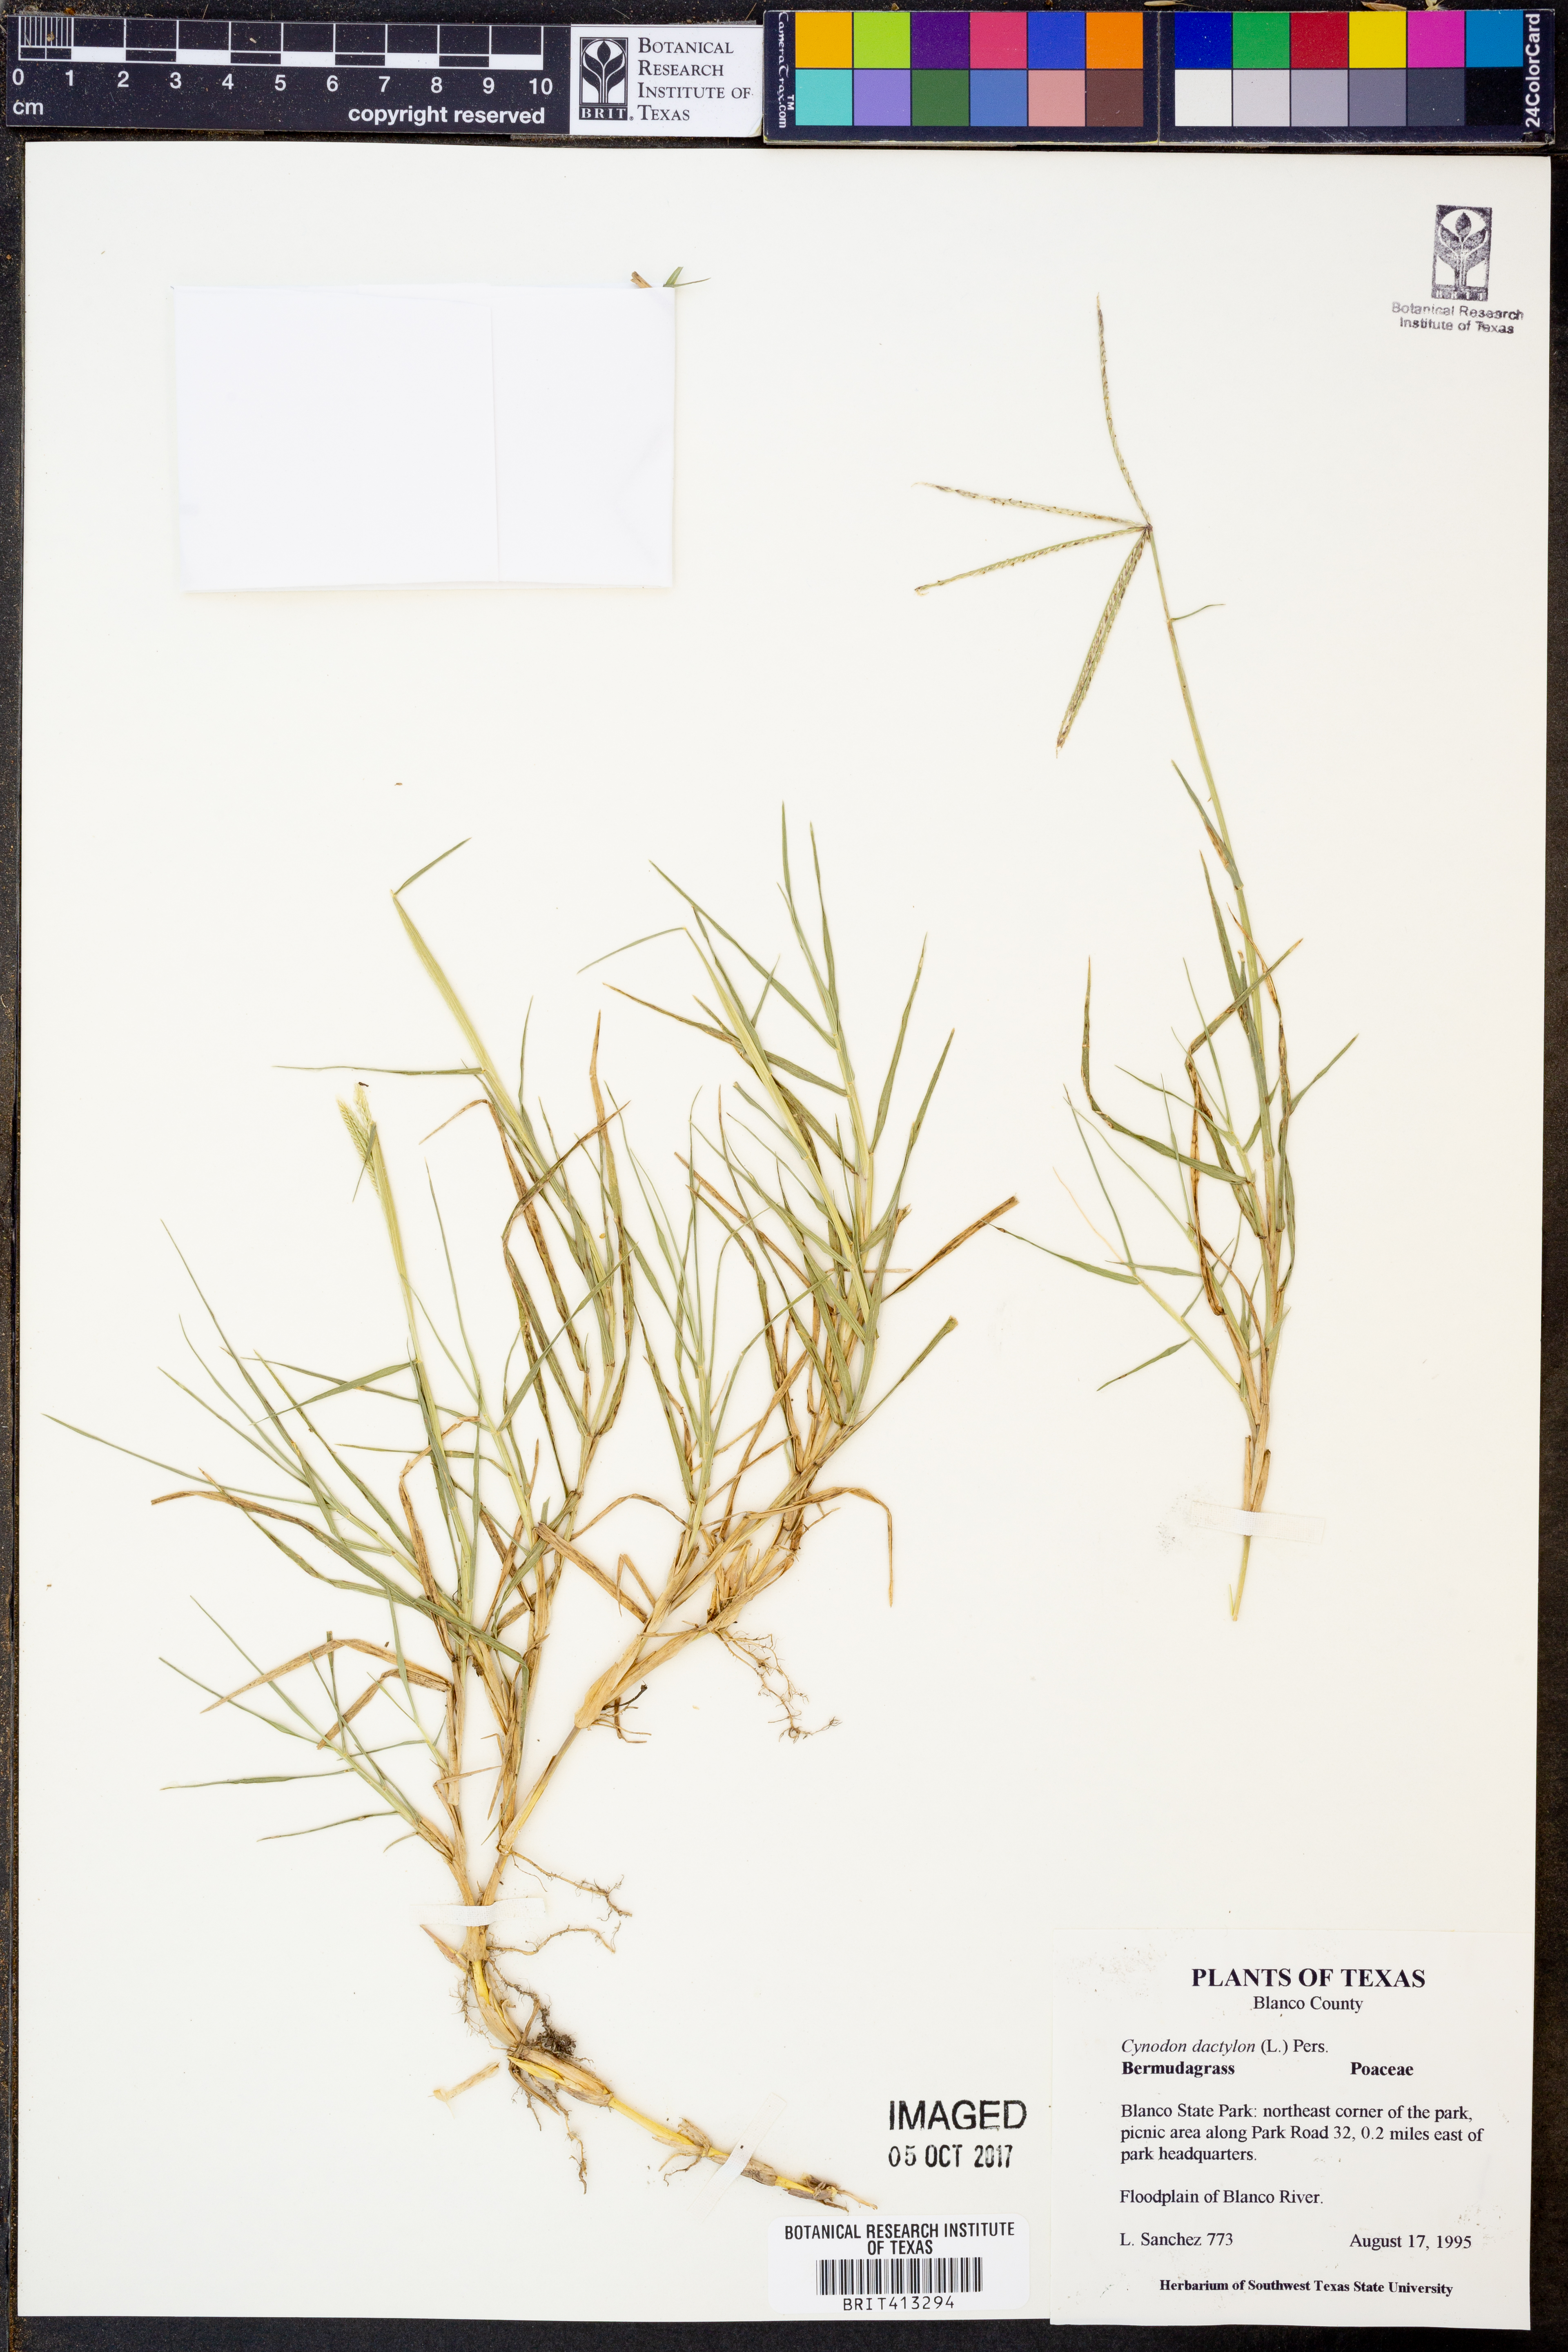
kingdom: Plantae
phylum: Tracheophyta
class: Liliopsida
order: Poales
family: Poaceae
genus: Cynodon
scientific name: Cynodon dactylon
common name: Bermuda grass
